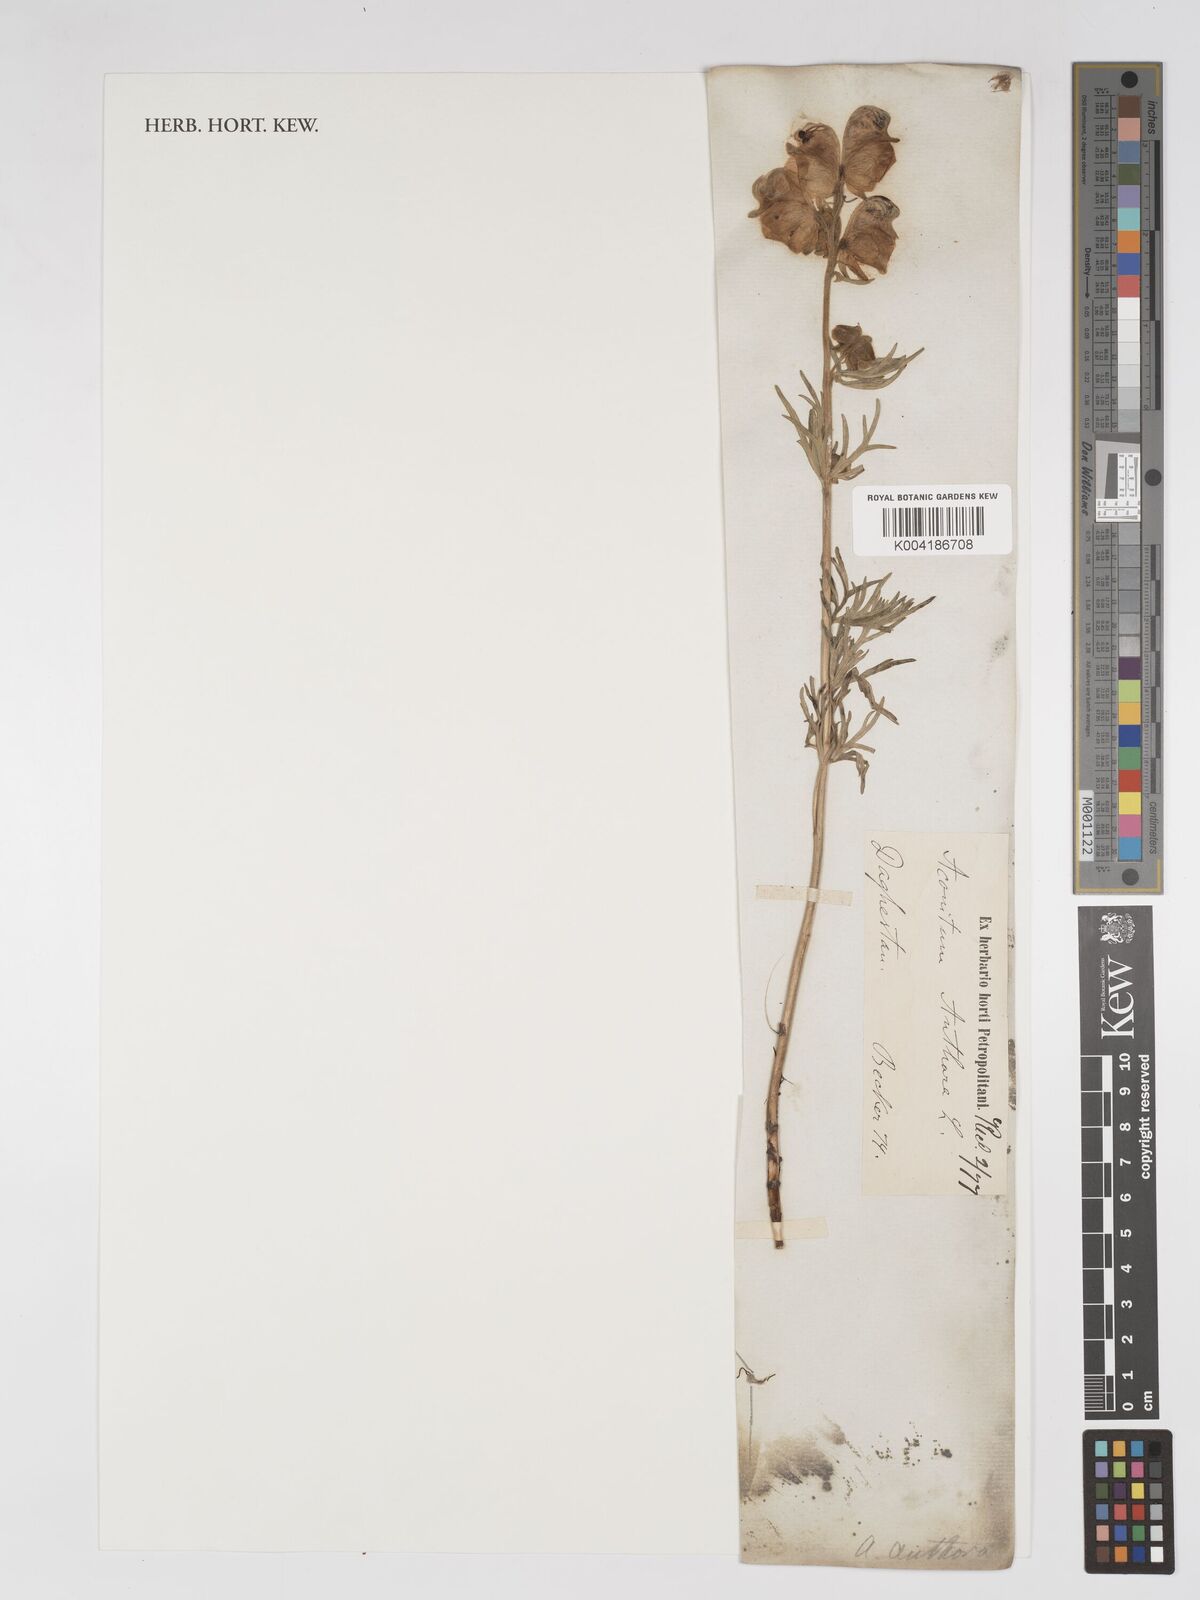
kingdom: Plantae
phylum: Tracheophyta
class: Magnoliopsida
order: Ranunculales
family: Ranunculaceae
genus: Aconitum
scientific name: Aconitum anthora
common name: Yellow monkshood
